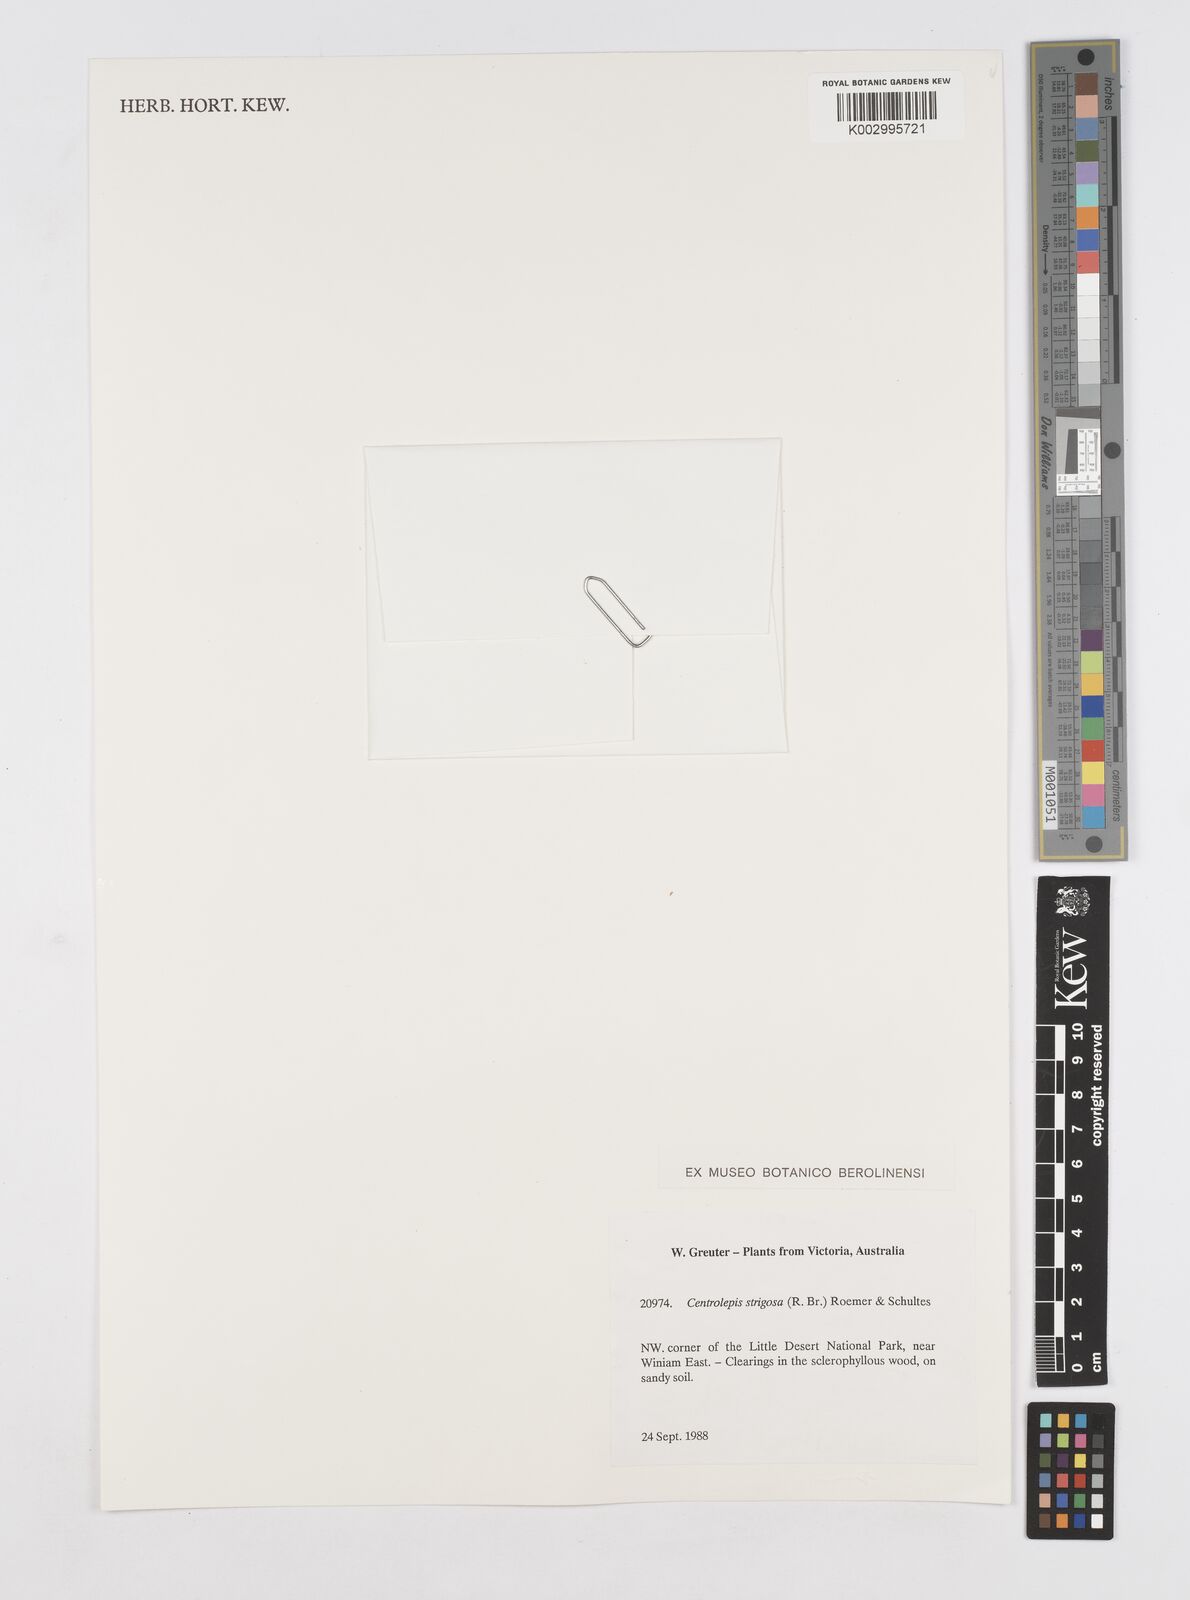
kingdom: Plantae
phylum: Tracheophyta
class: Liliopsida
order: Poales
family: Restionaceae
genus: Centrolepis
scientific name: Centrolepis strigosa
